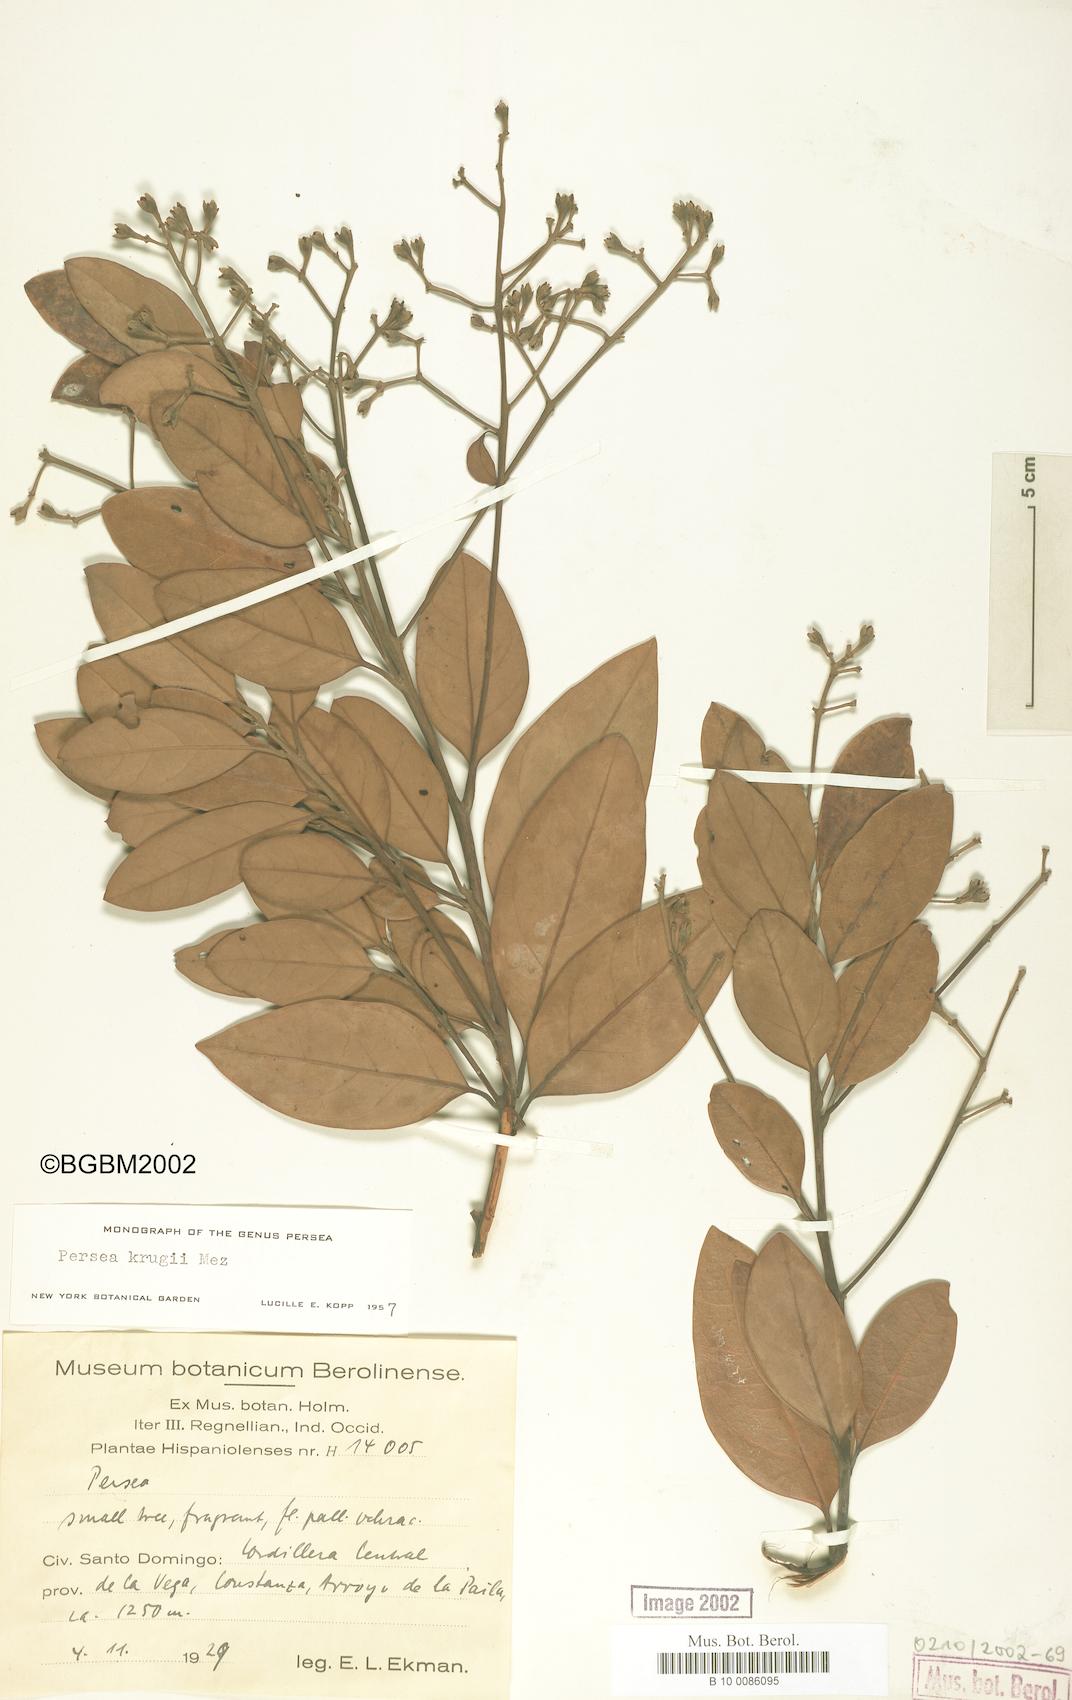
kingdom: Plantae
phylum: Tracheophyta
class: Magnoliopsida
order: Laurales
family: Lauraceae
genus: Persea
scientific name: Persea krugii
